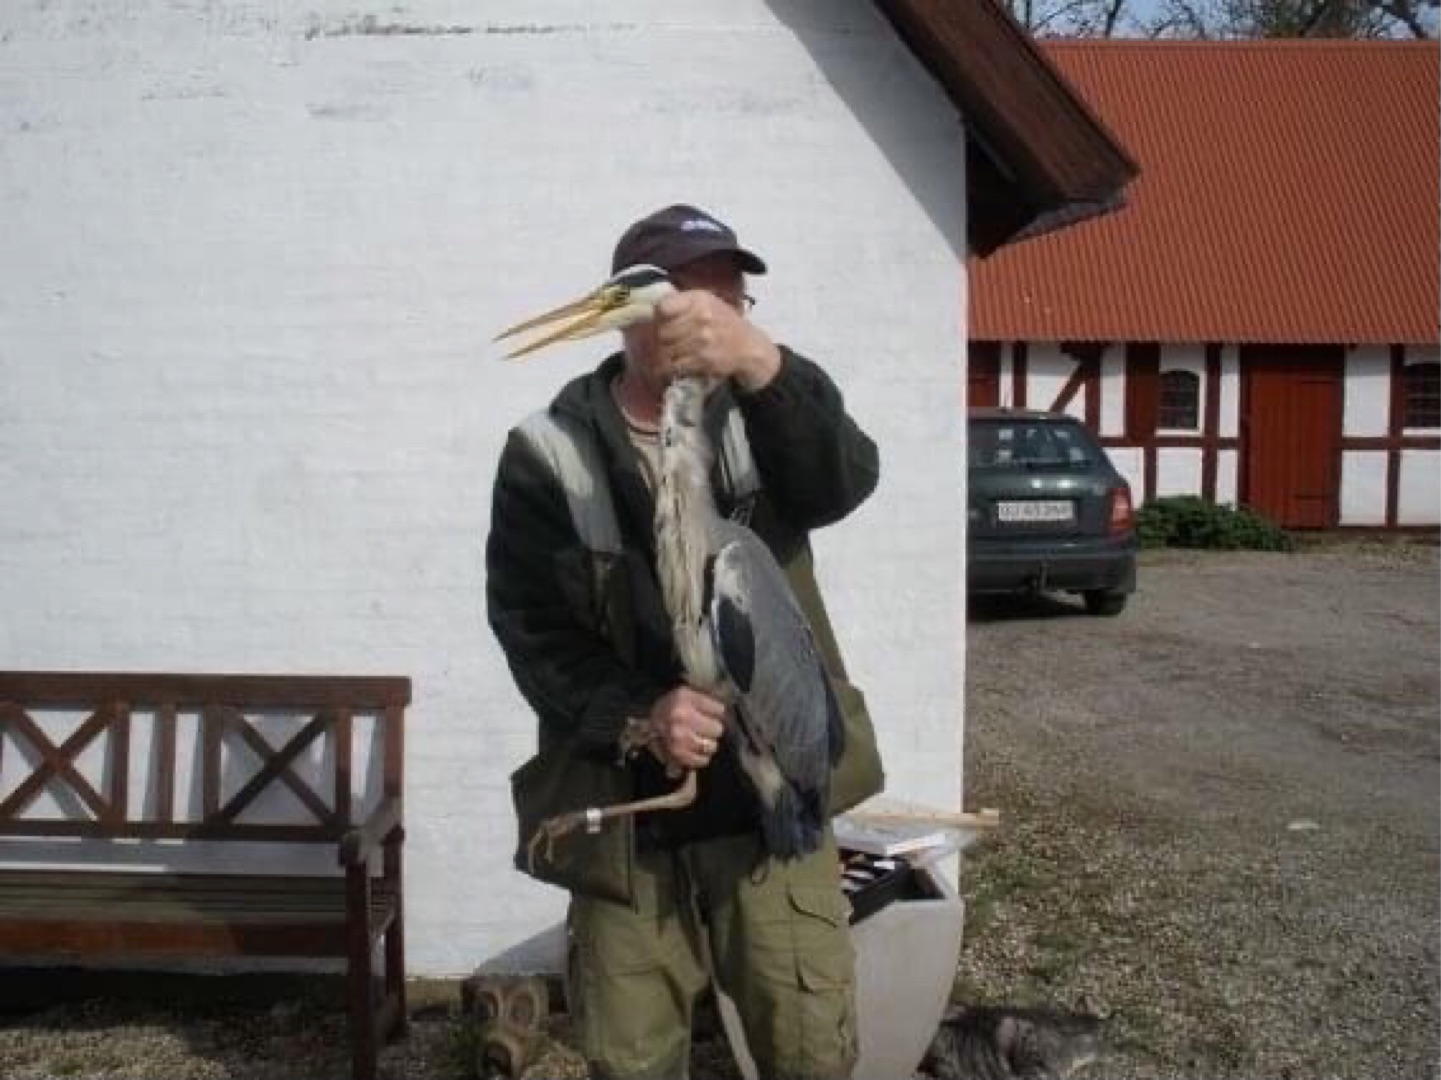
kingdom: Animalia
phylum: Chordata
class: Aves
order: Pelecaniformes
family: Ardeidae
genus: Ardea
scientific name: Ardea cinerea
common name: Fiskehejre
